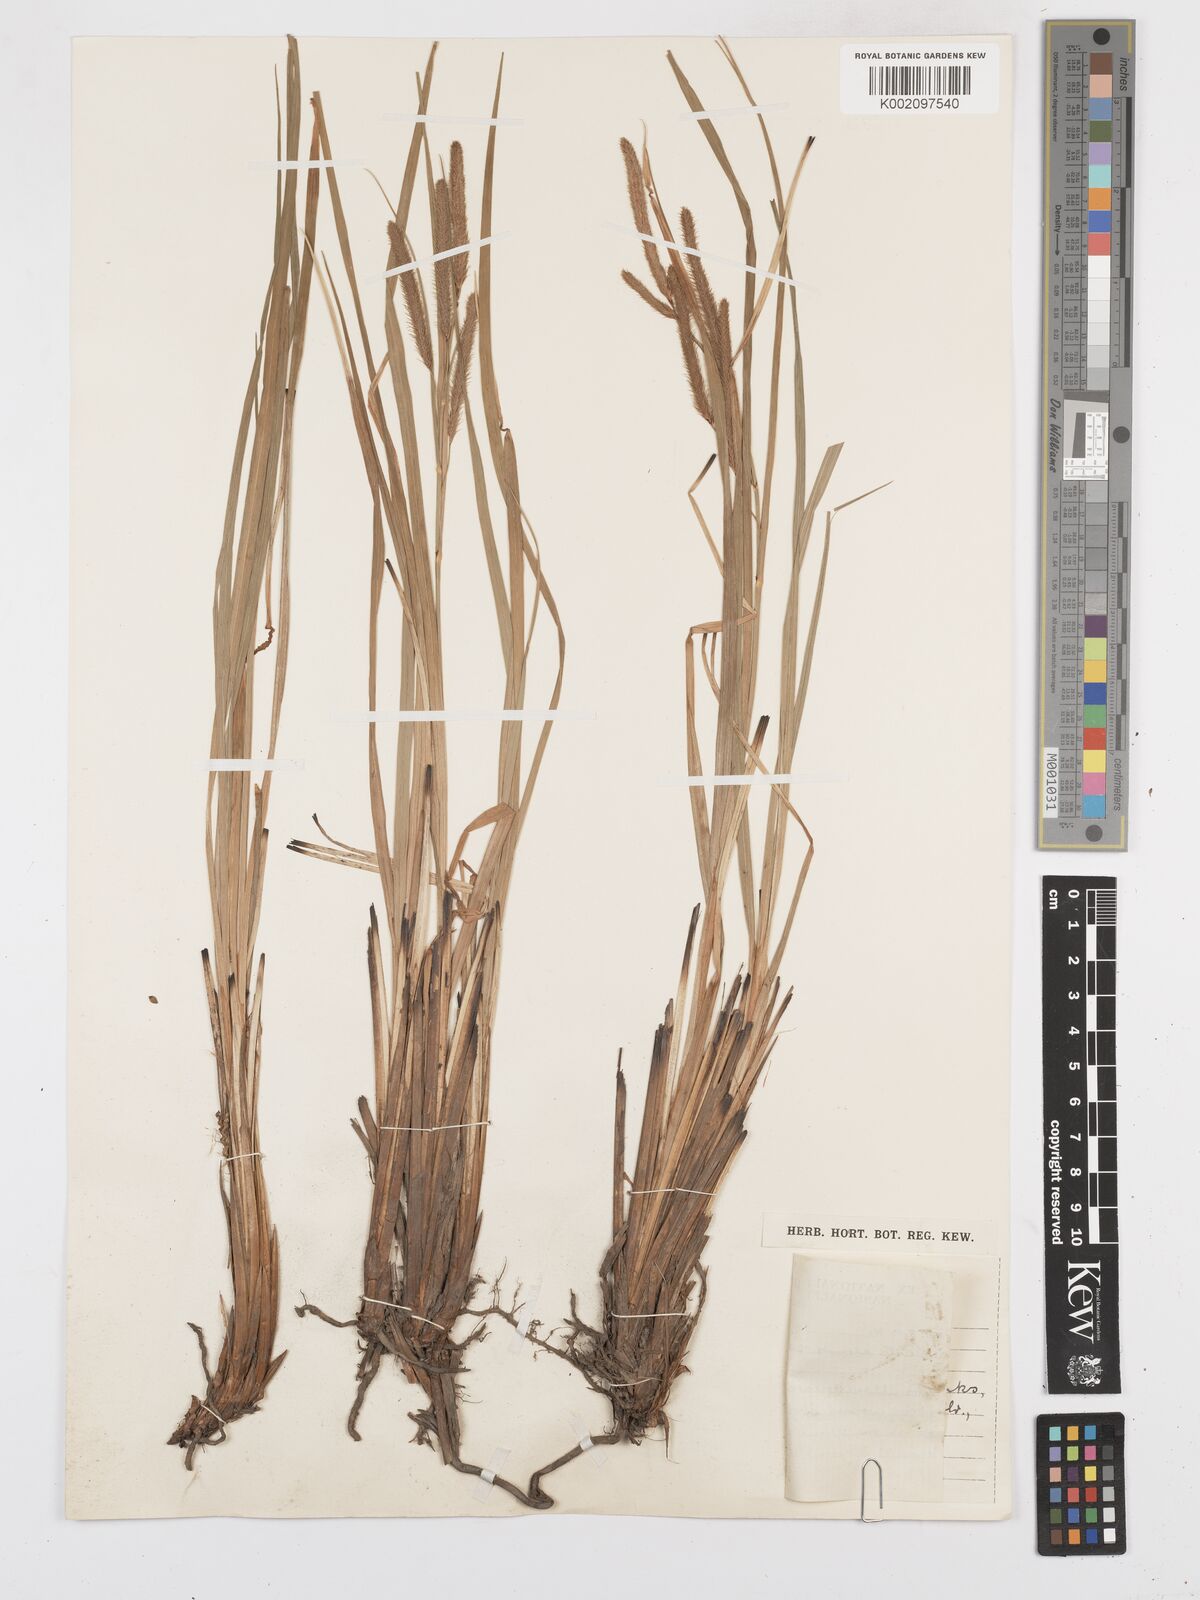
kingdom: Plantae
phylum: Tracheophyta
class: Liliopsida
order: Poales
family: Cyperaceae
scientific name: Cyperaceae
